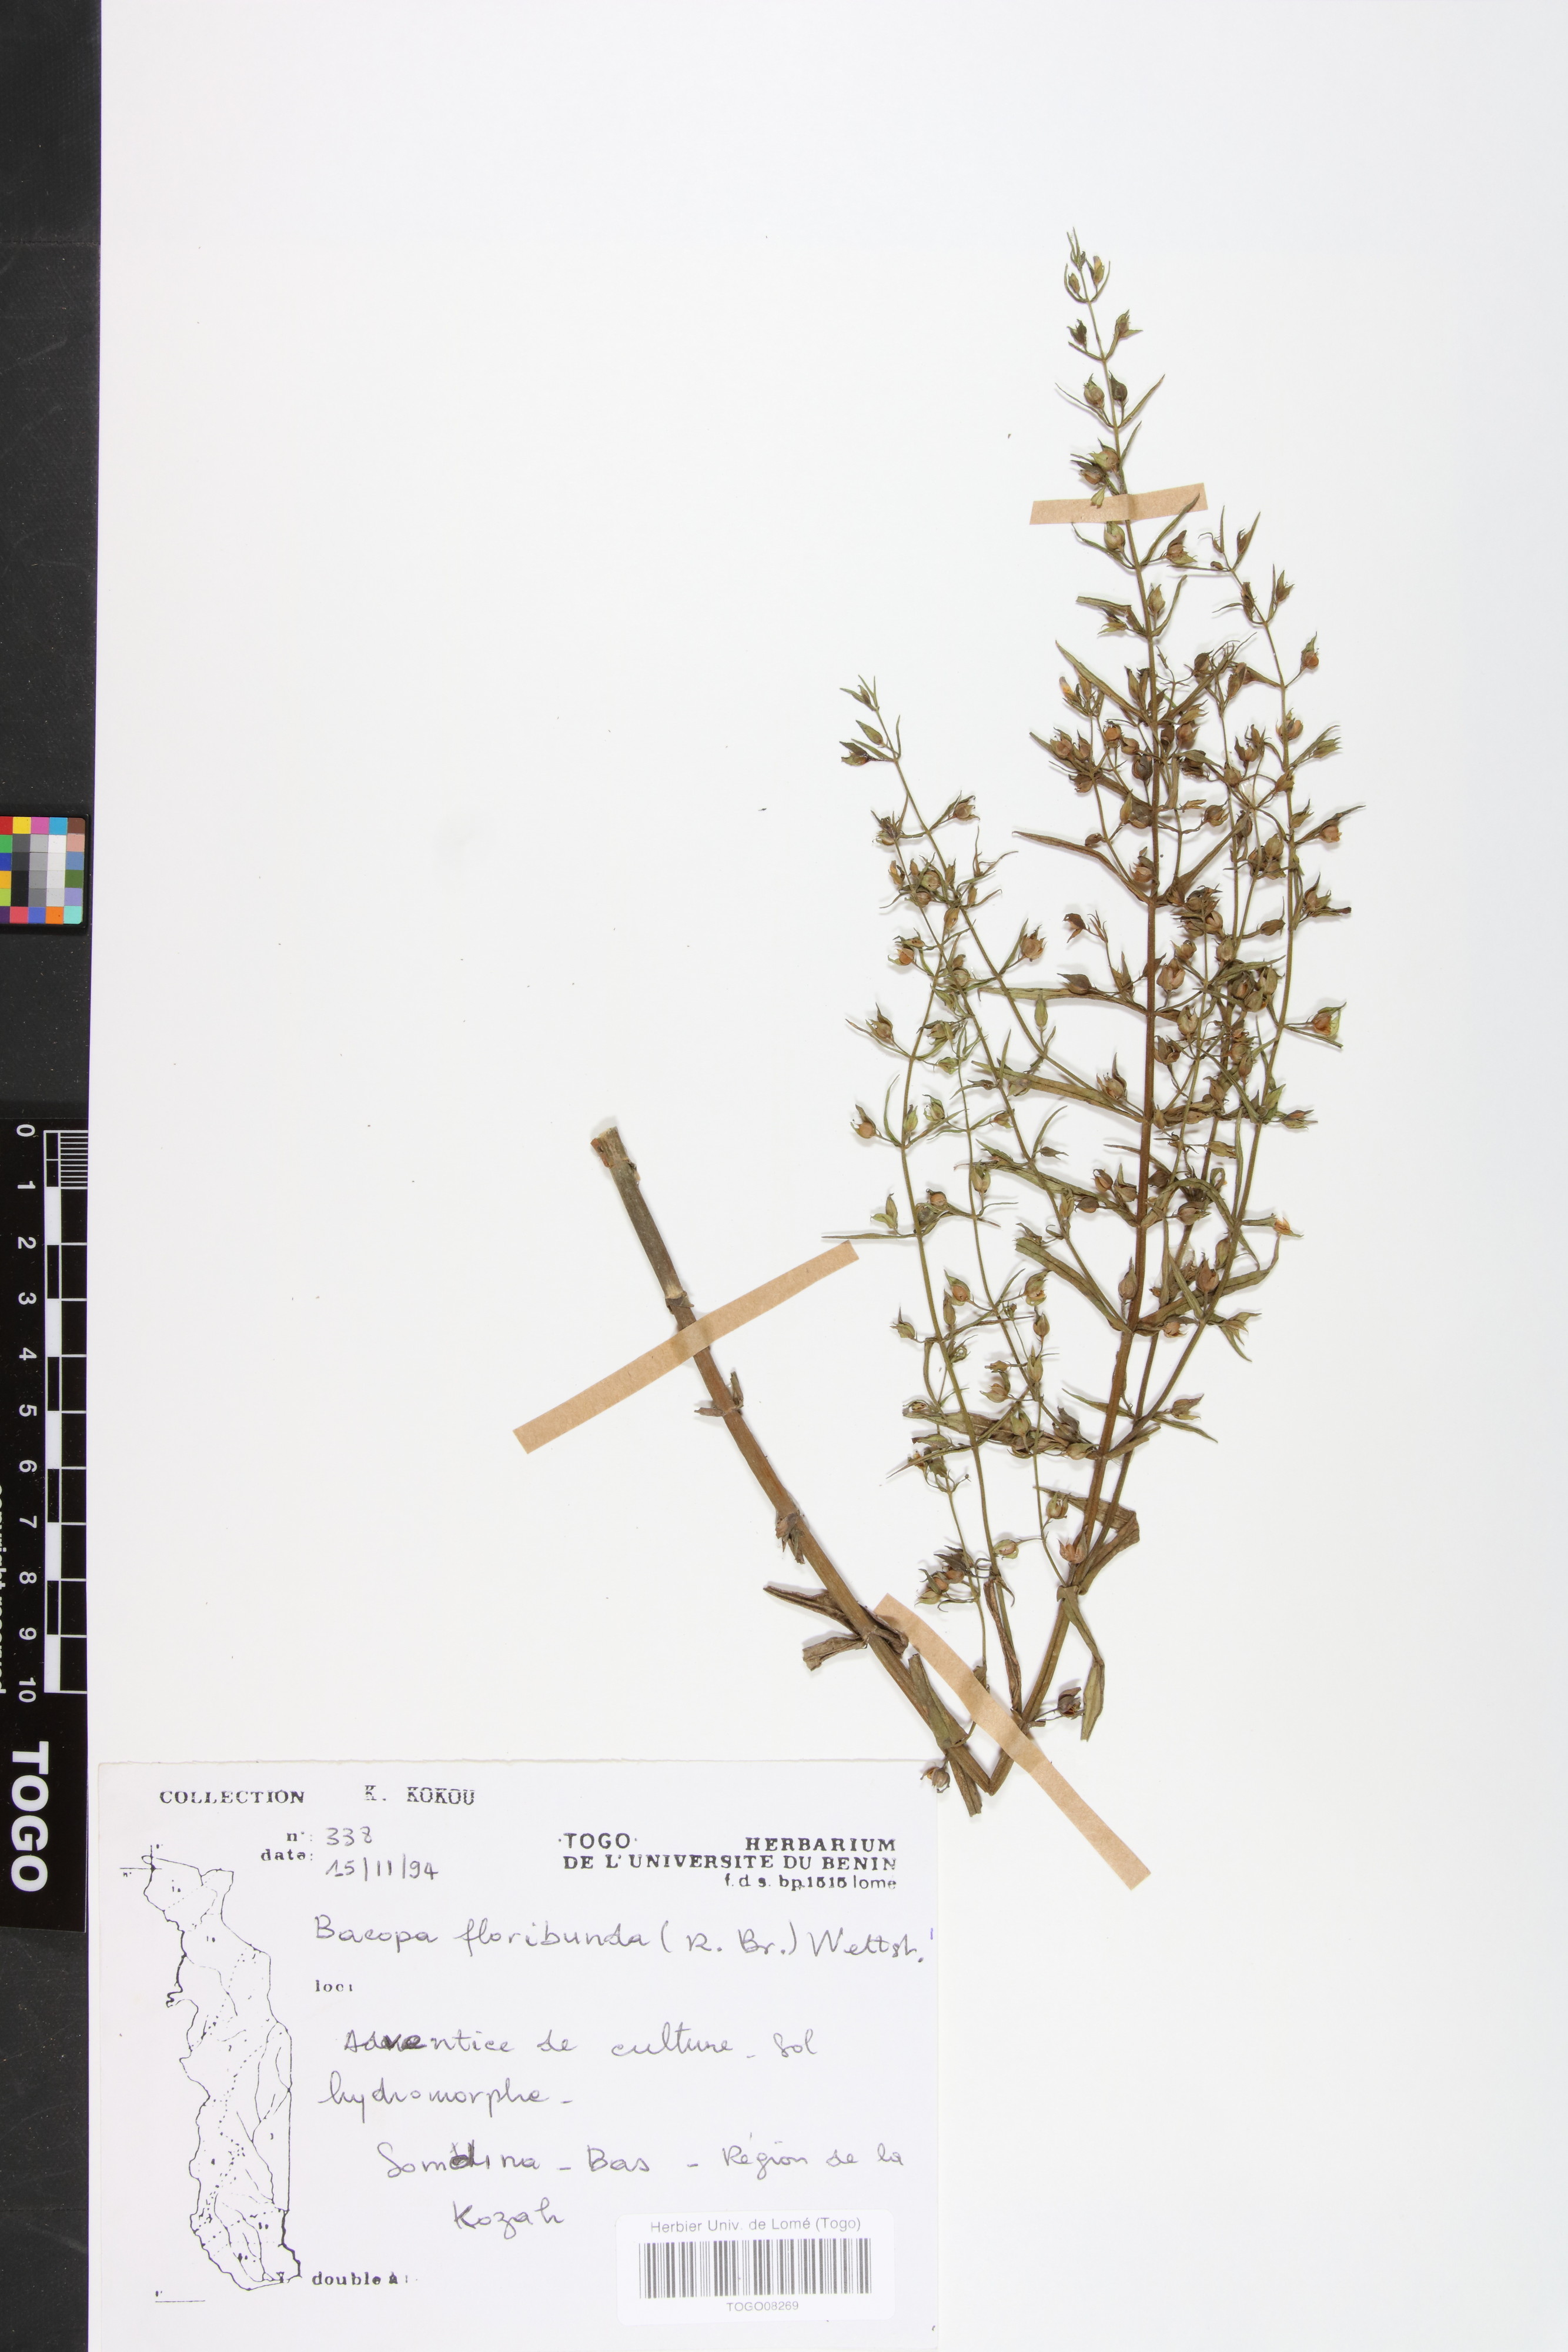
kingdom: Plantae
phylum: Tracheophyta
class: Magnoliopsida
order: Lamiales
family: Plantaginaceae
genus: Bacopa
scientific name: Bacopa floribunda
